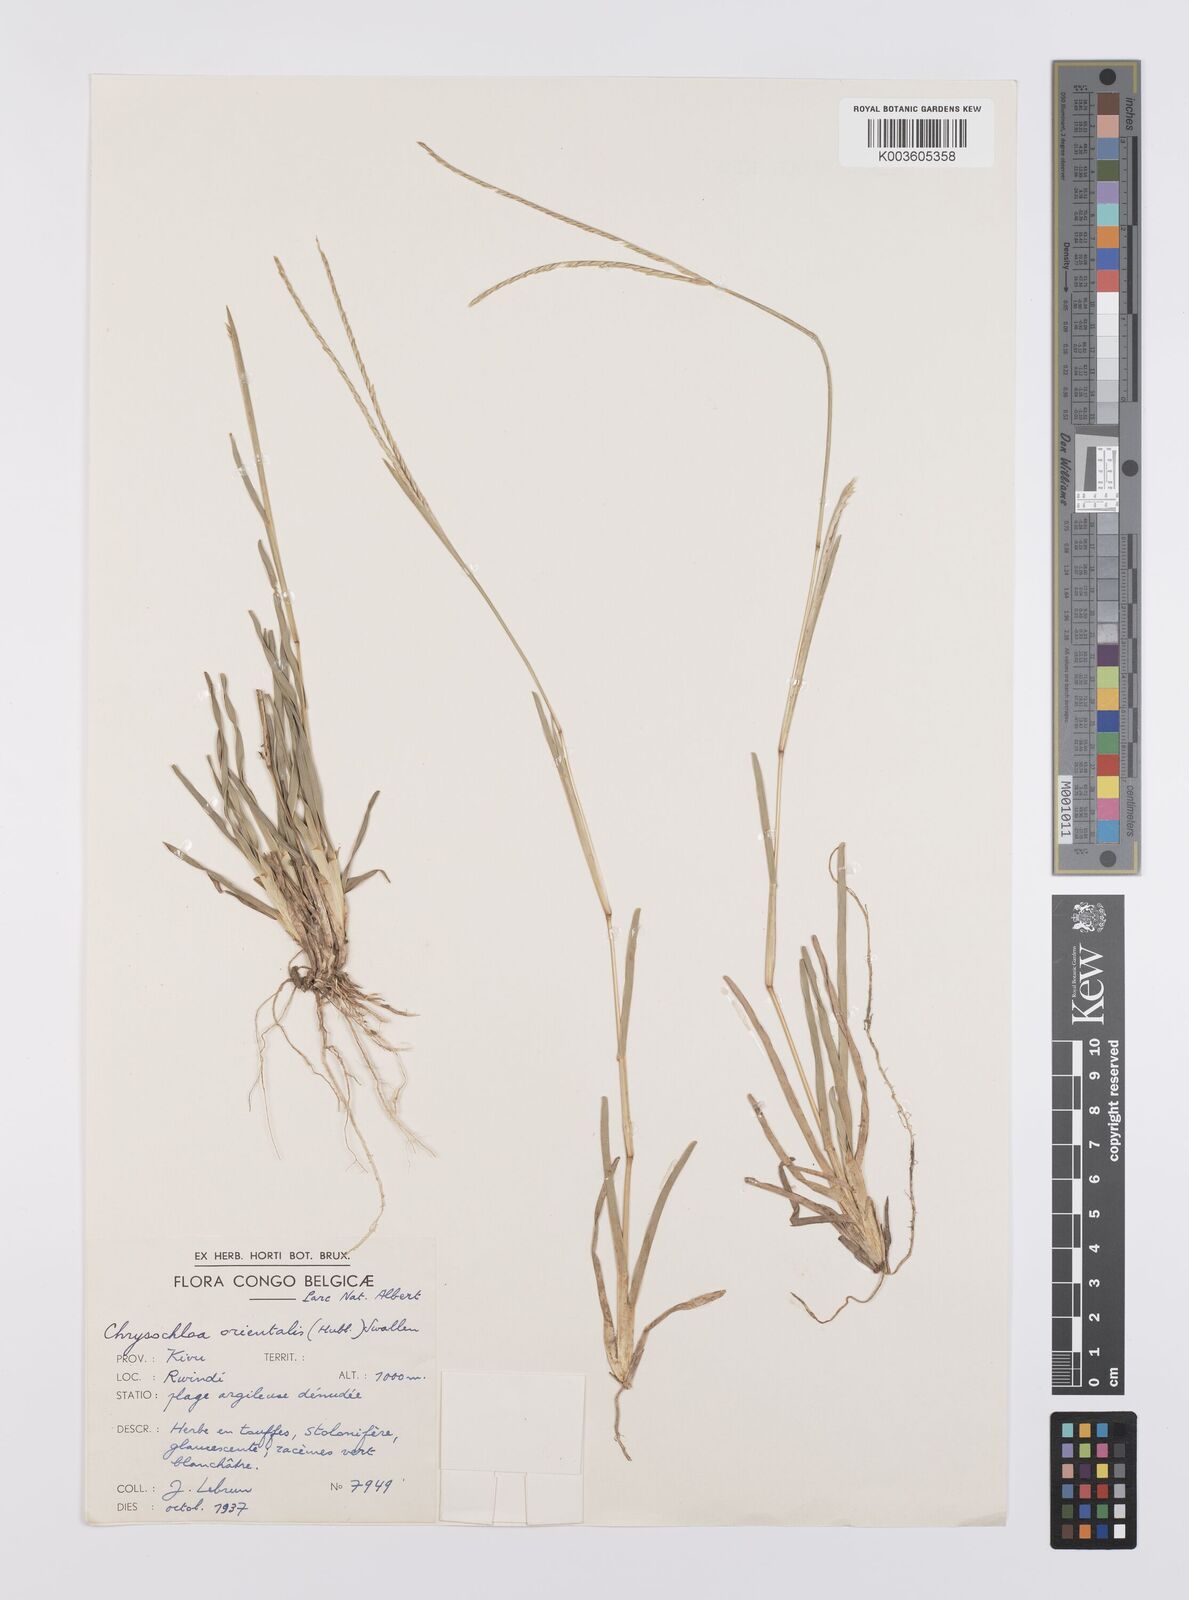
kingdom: Plantae
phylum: Tracheophyta
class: Liliopsida
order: Poales
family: Poaceae
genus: Chrysochloa
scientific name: Chrysochloa orientalis
